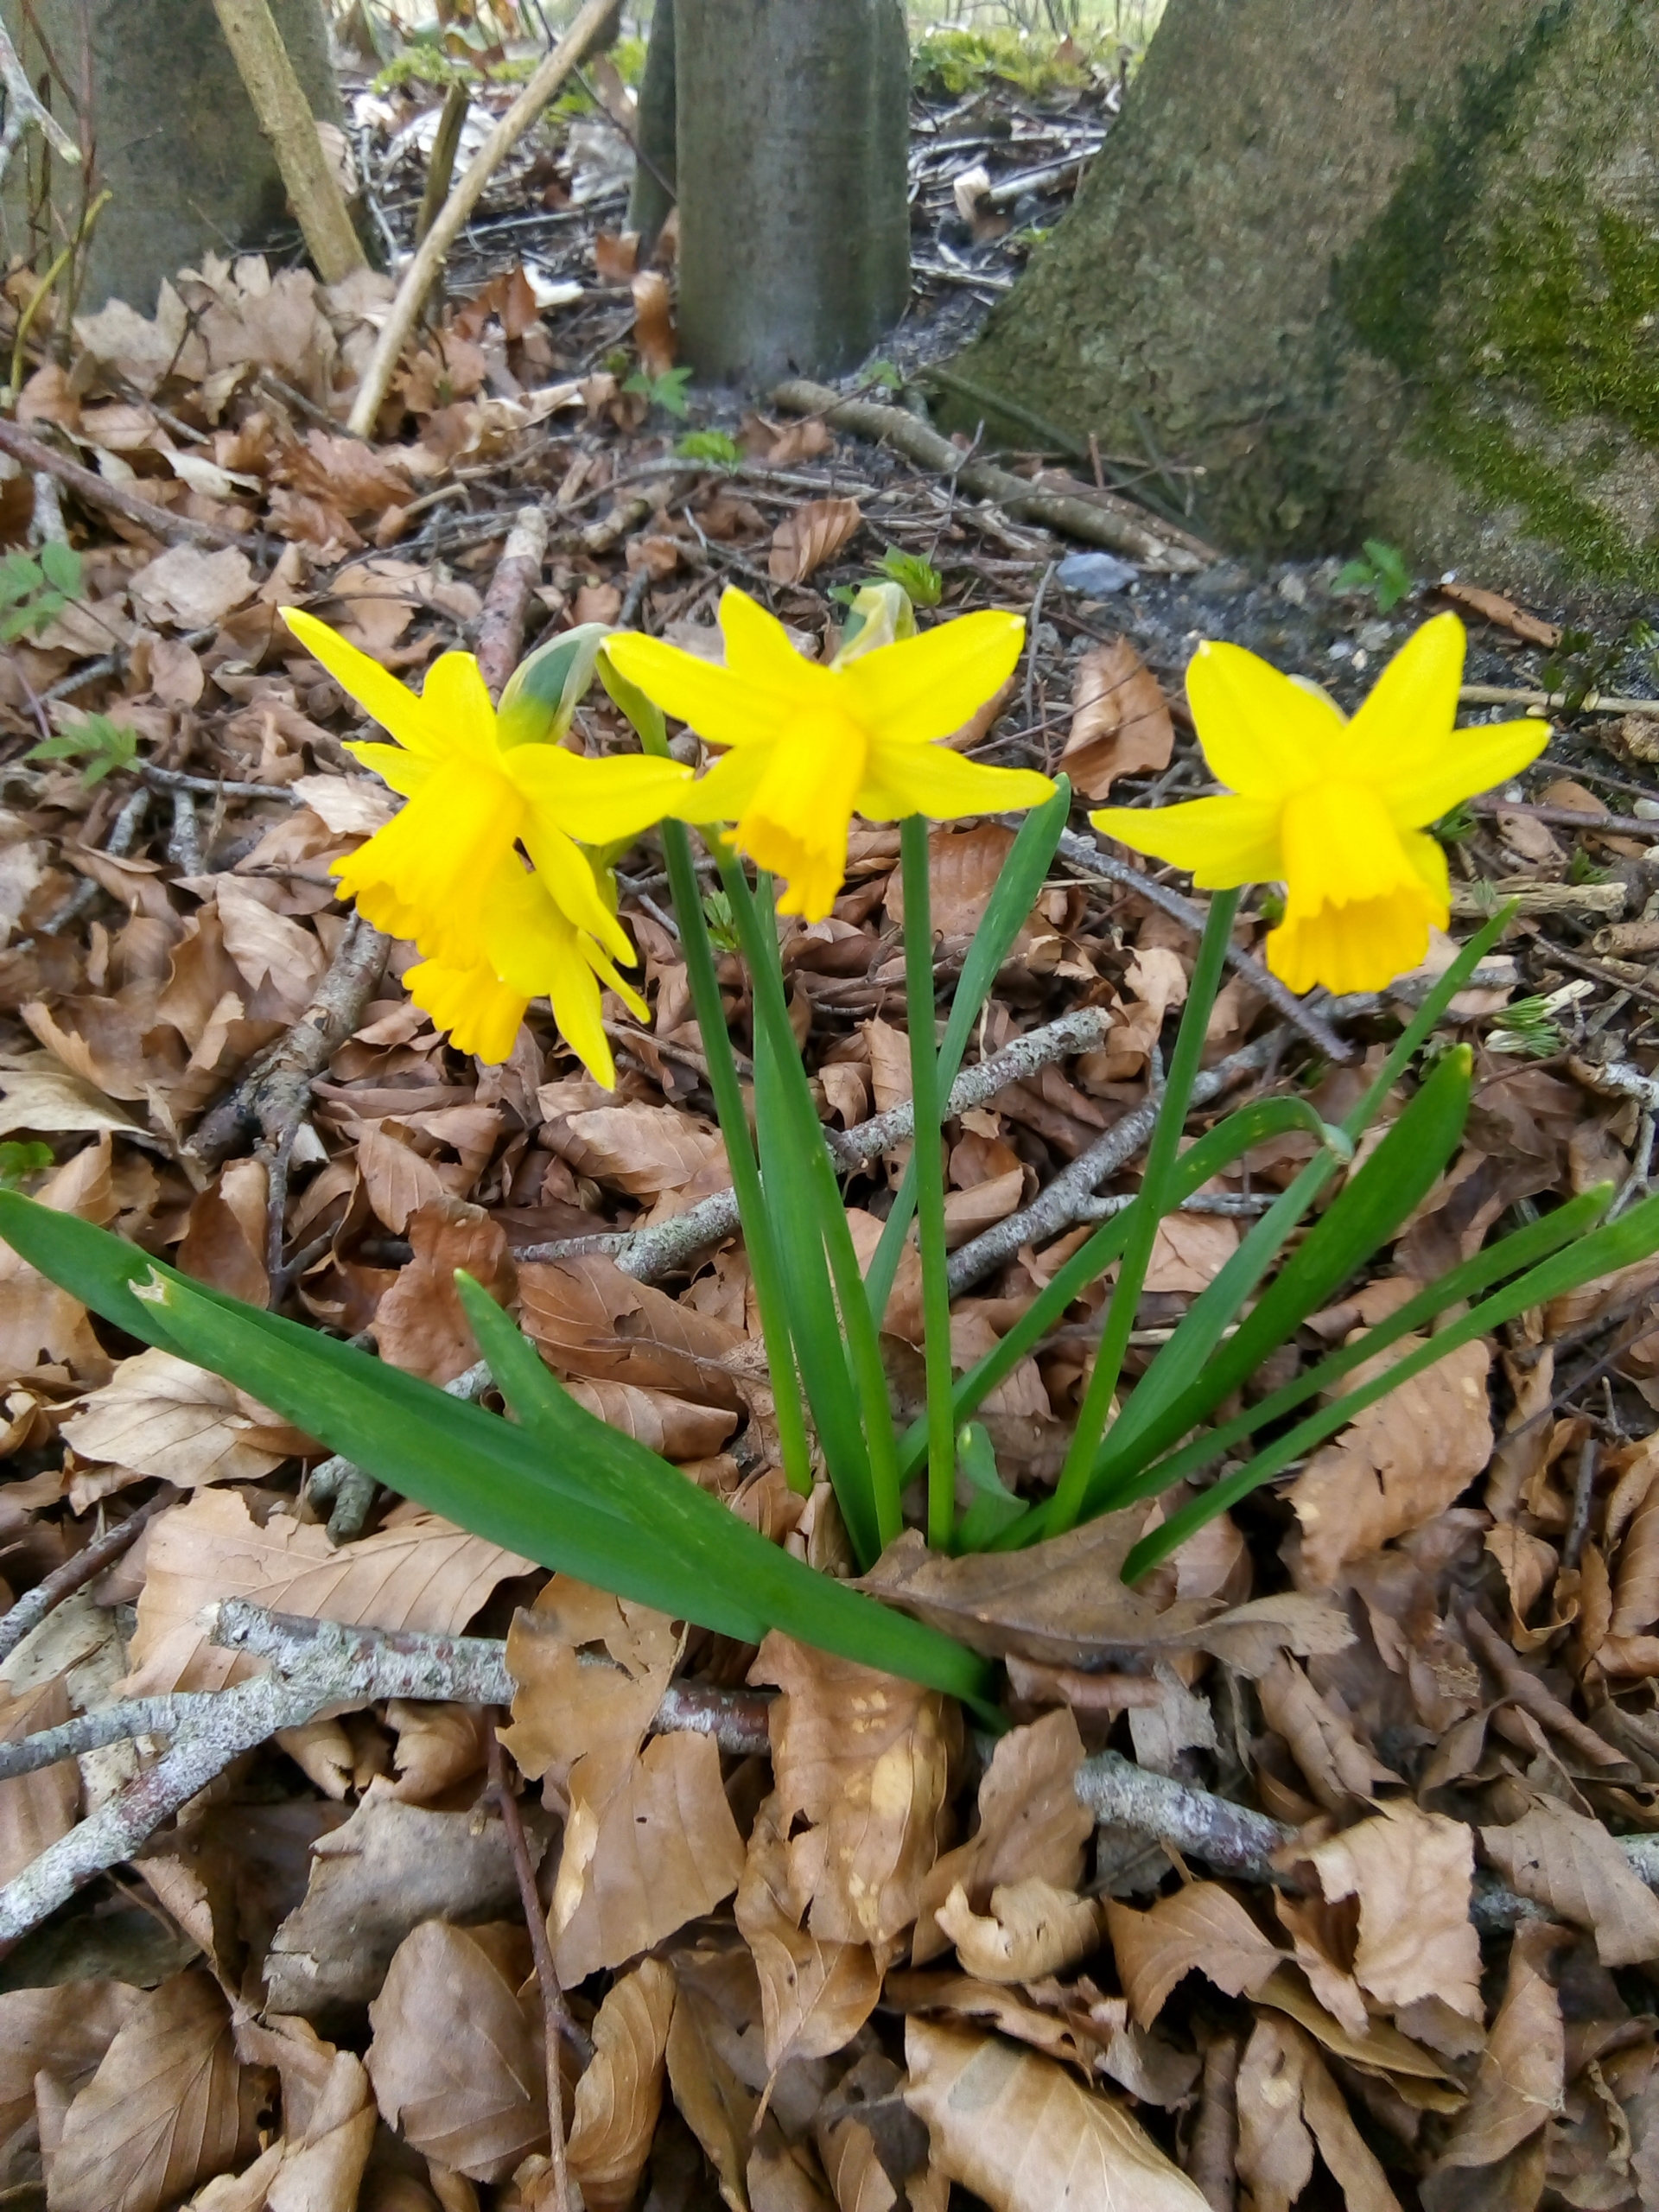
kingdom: Plantae
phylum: Tracheophyta
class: Liliopsida
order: Asparagales
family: Amaryllidaceae
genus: Narcissus
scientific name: Narcissus pseudonarcissus
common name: Påskelilje
